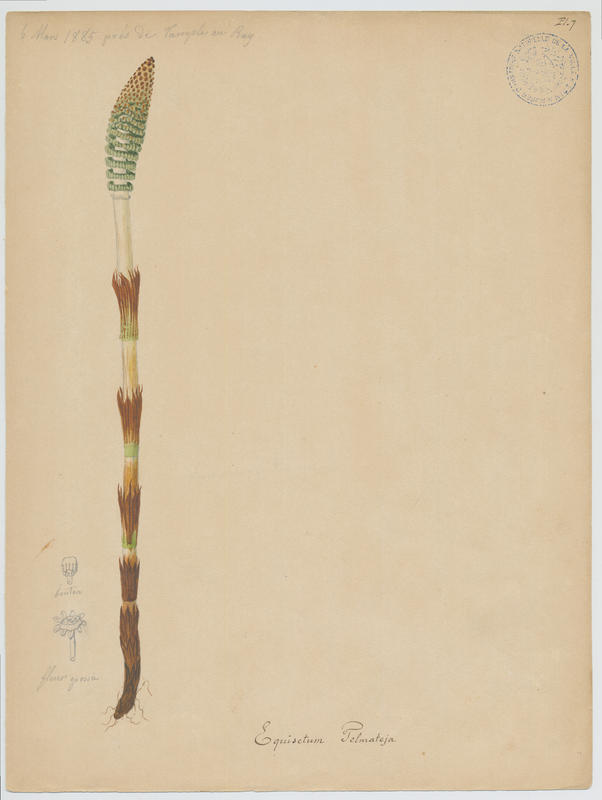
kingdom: Plantae
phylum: Tracheophyta
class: Polypodiopsida
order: Equisetales
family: Equisetaceae
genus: Equisetum
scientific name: Equisetum telmateia
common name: Great horsetail
